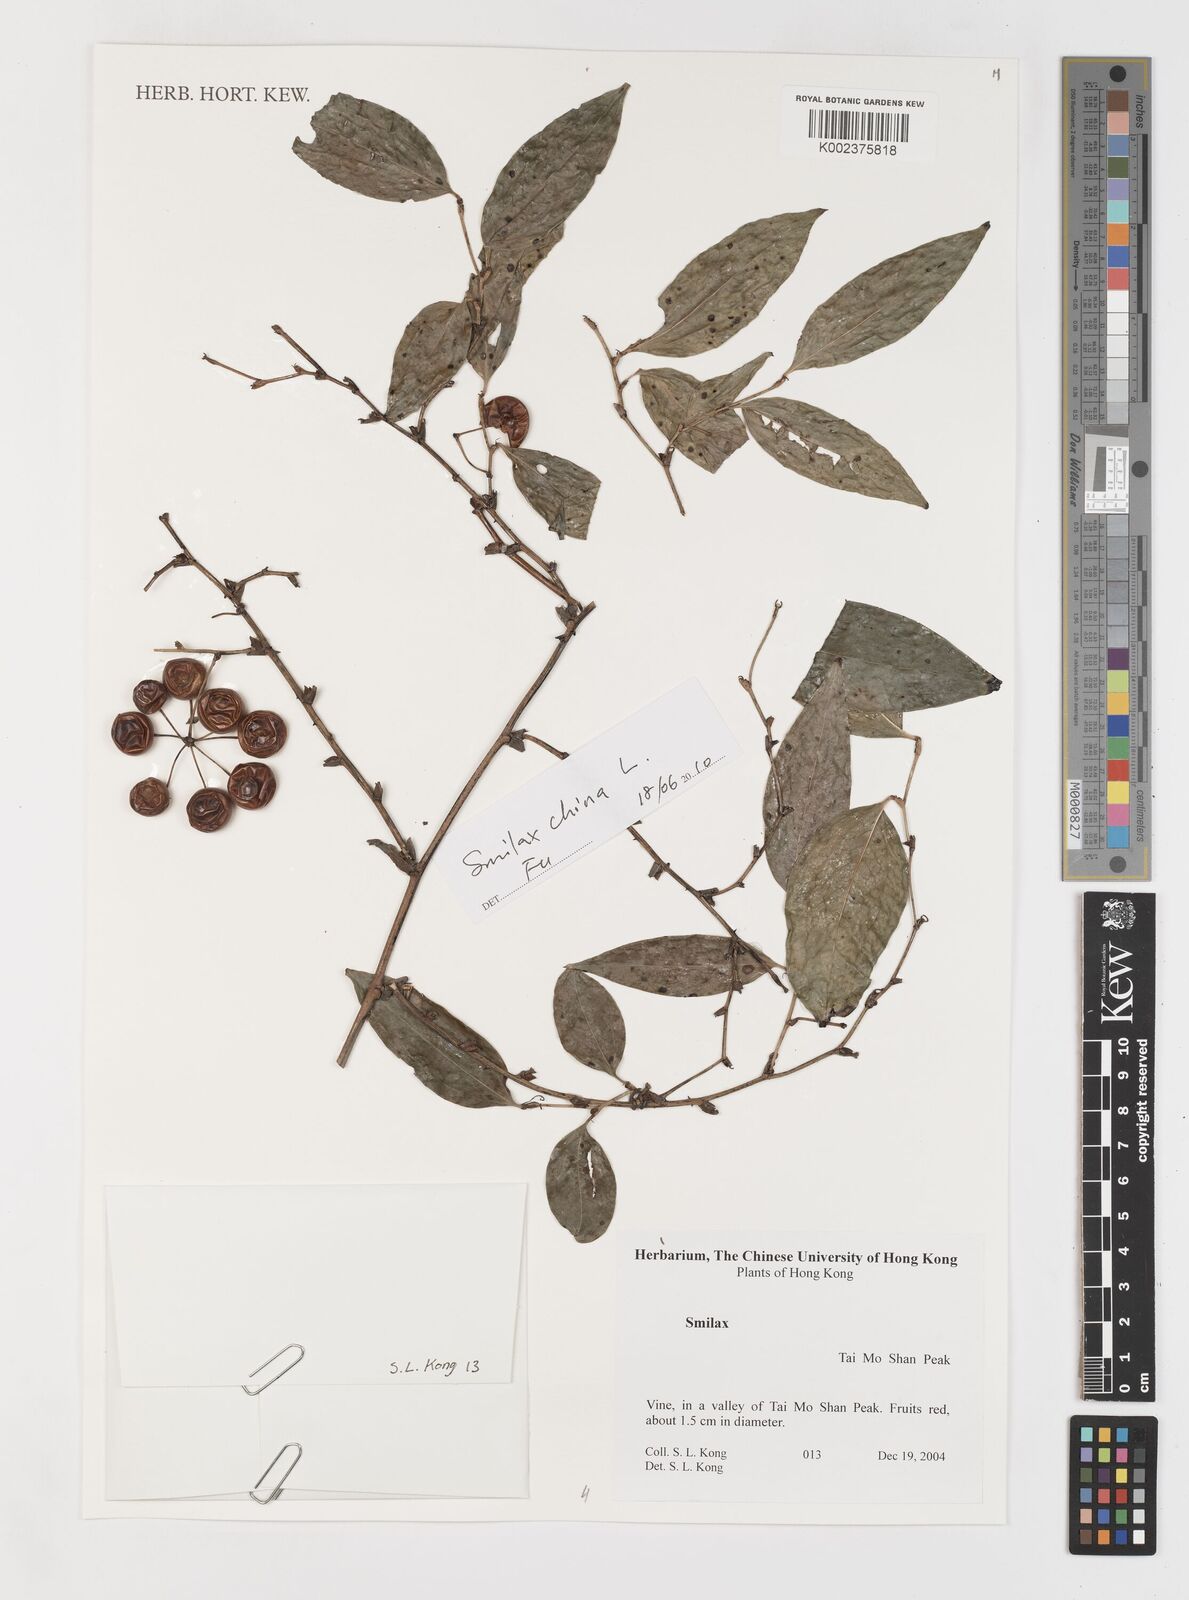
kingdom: Plantae
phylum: Tracheophyta
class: Liliopsida
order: Liliales
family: Smilacaceae
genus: Smilax
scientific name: Smilax
